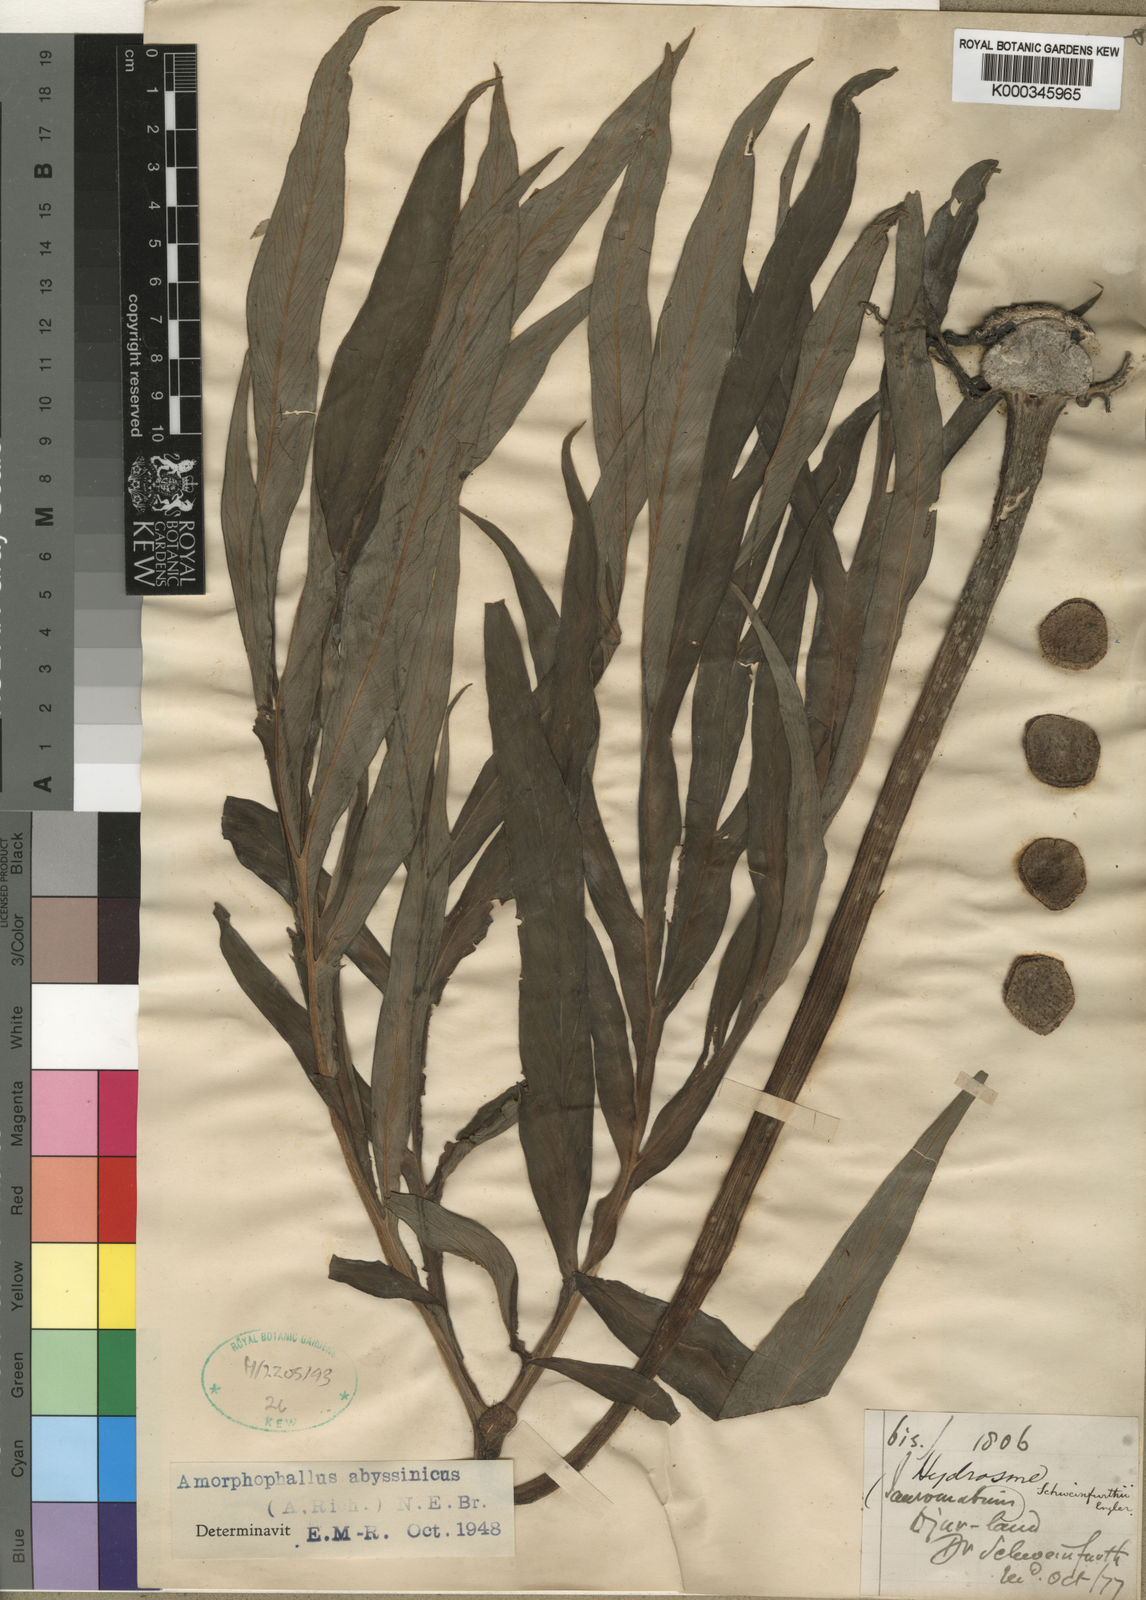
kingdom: Plantae
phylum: Tracheophyta
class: Liliopsida
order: Alismatales
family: Araceae
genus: Amorphophallus
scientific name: Amorphophallus abyssinicus
